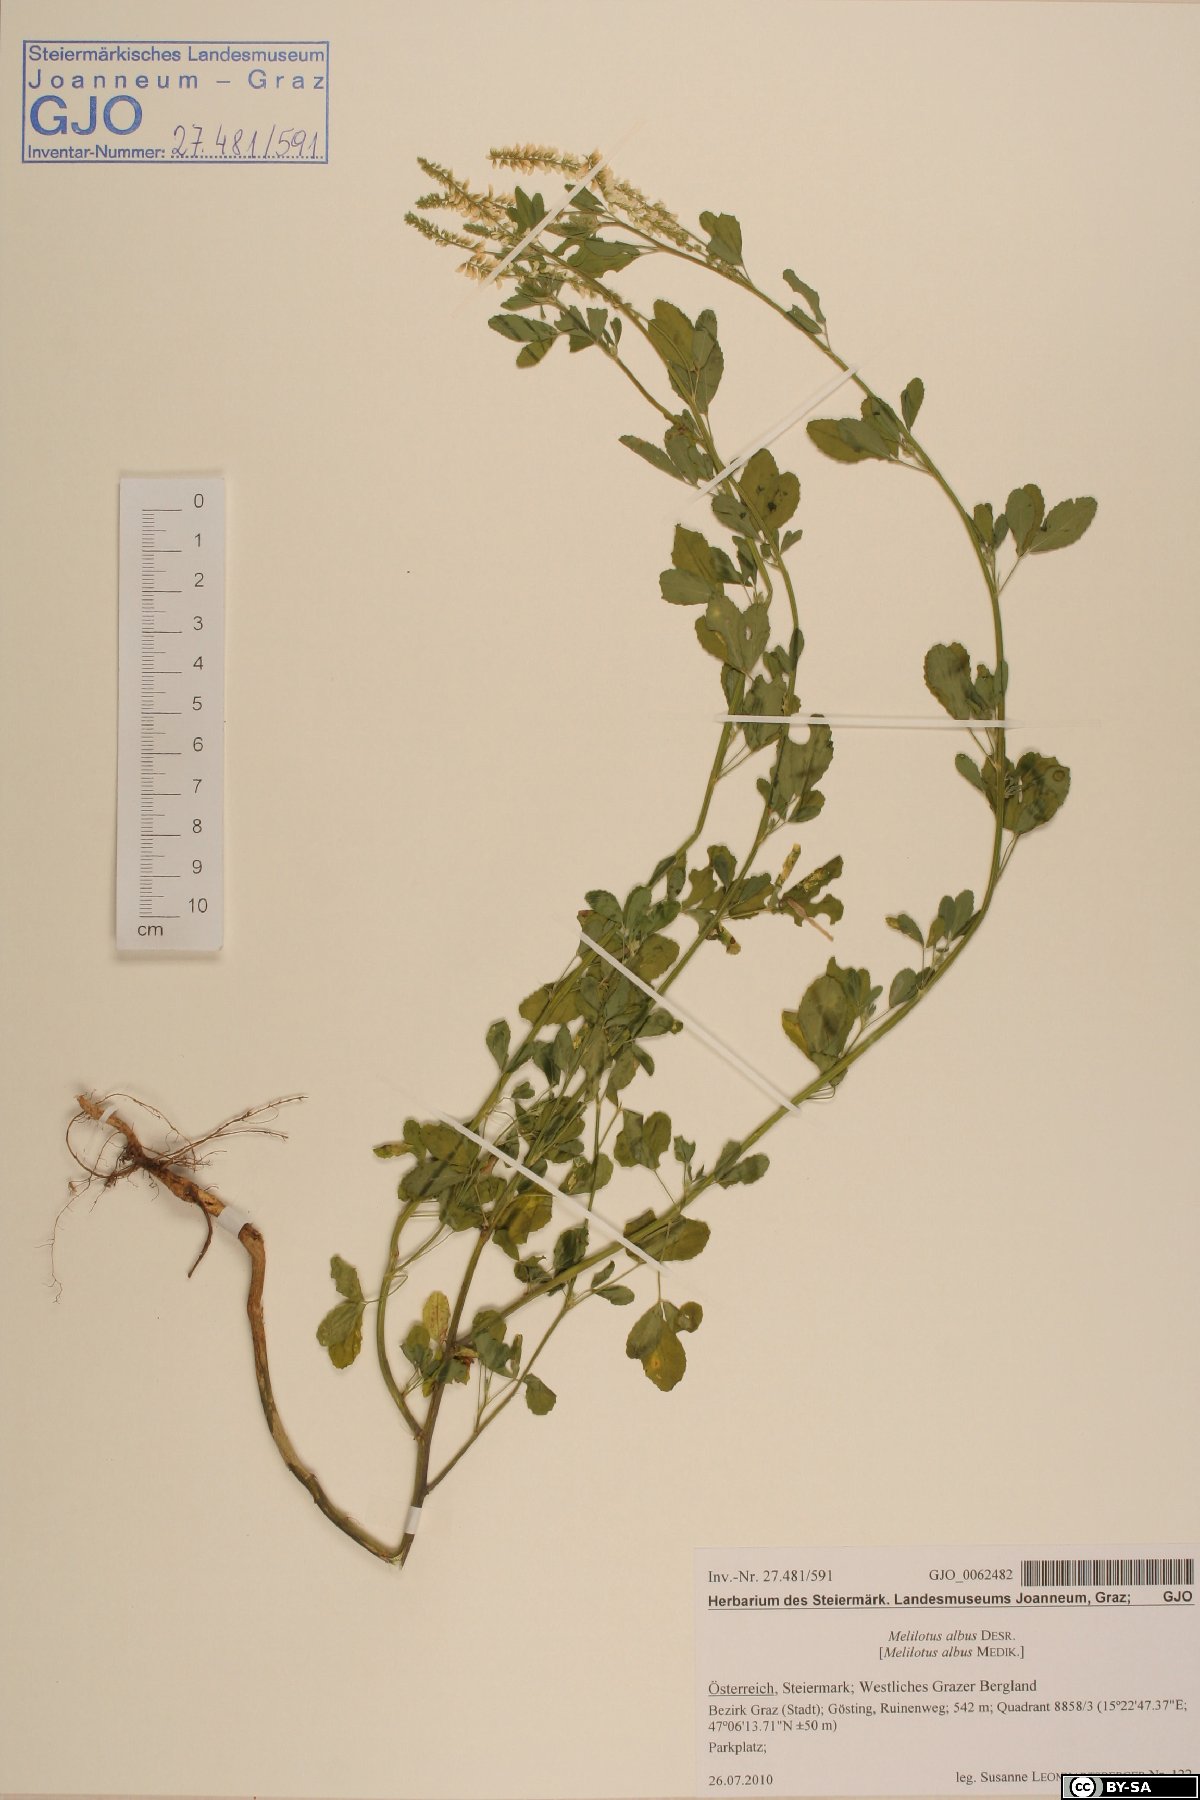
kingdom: Plantae
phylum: Tracheophyta
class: Magnoliopsida
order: Fabales
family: Fabaceae
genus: Melilotus
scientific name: Melilotus albus
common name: White melilot
